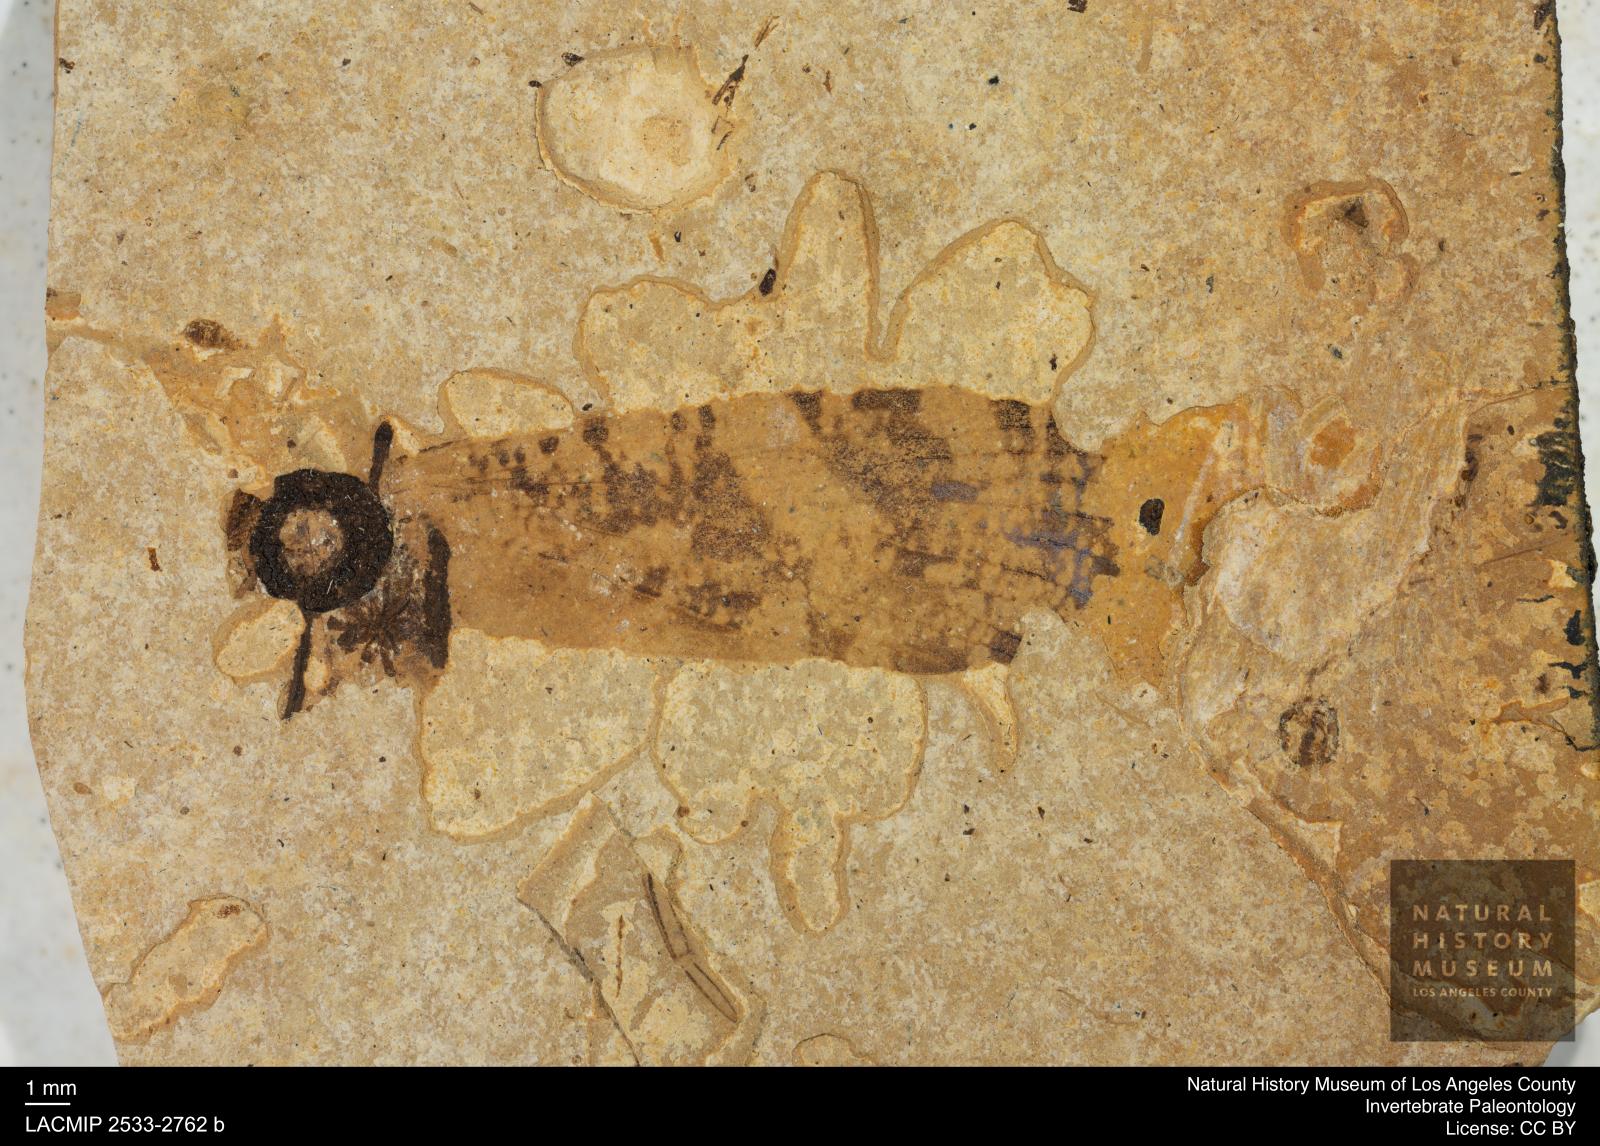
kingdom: Animalia
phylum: Arthropoda
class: Insecta
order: Trichoptera
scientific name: Trichoptera
